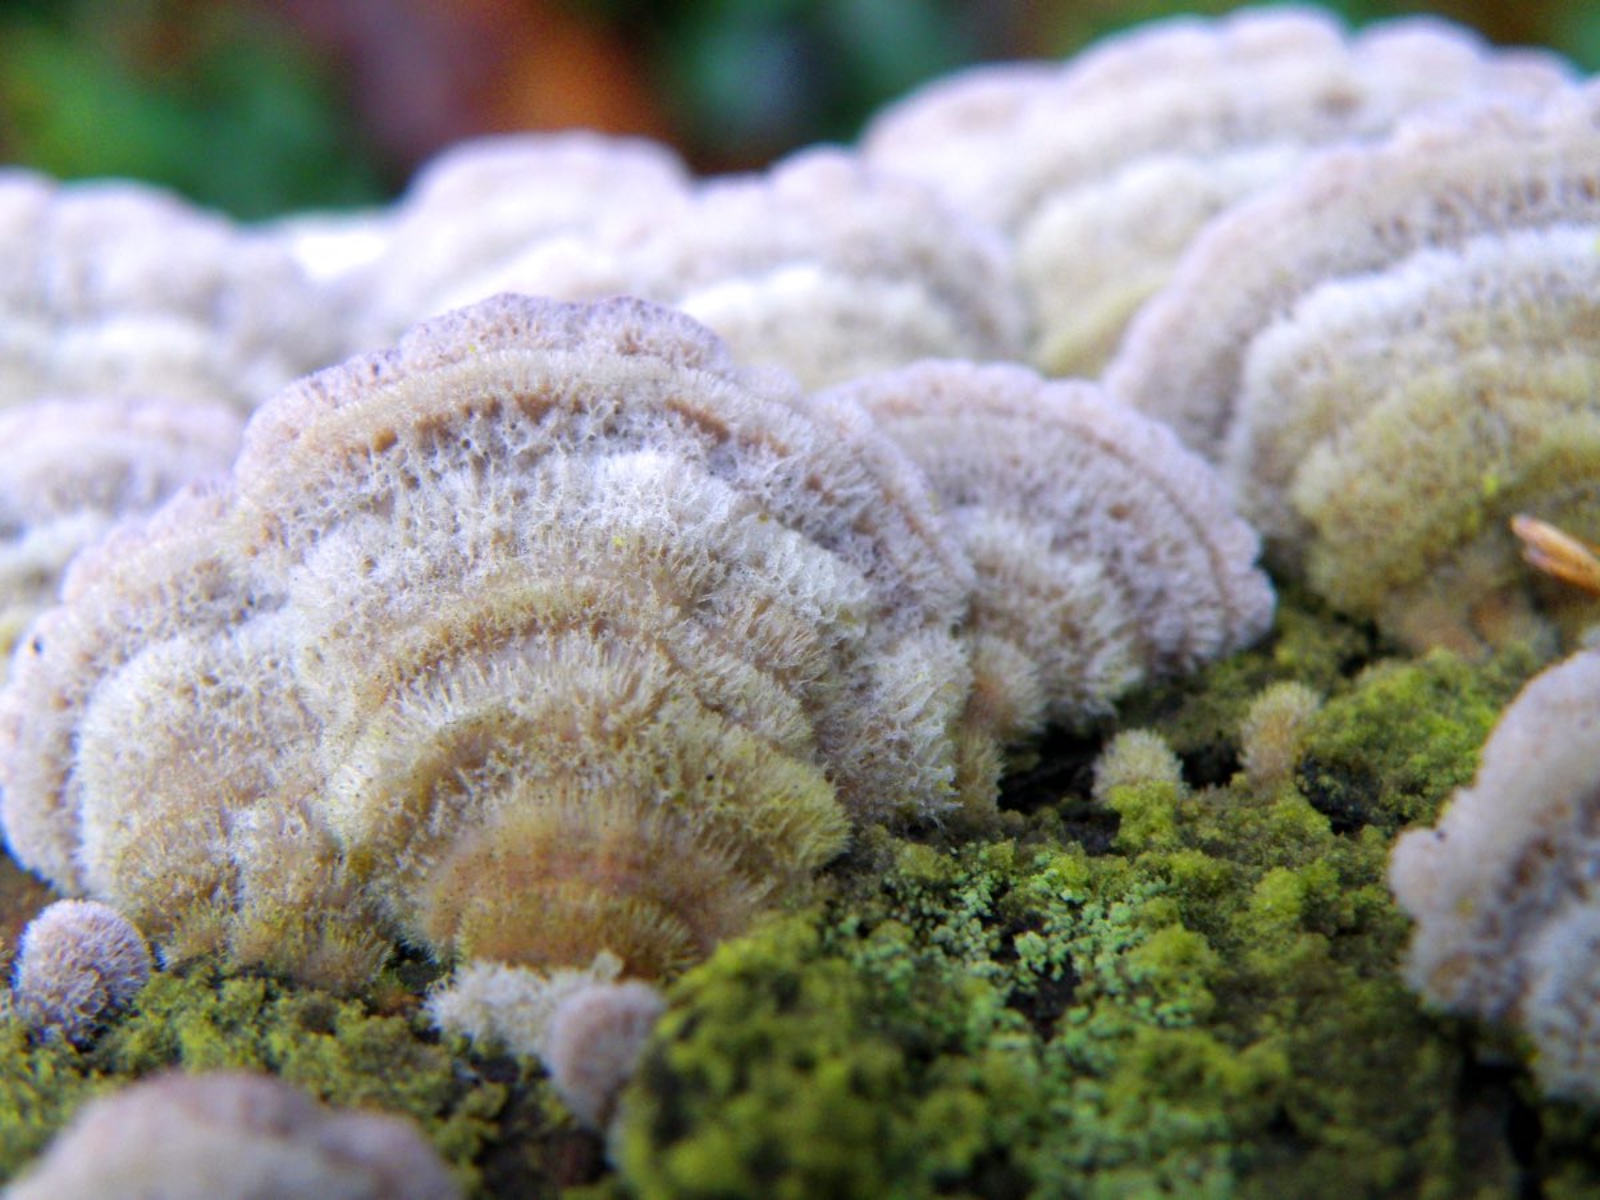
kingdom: Fungi
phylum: Basidiomycota
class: Agaricomycetes
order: Polyporales
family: Polyporaceae
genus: Trametes
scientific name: Trametes hirsuta
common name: håret læderporesvamp
